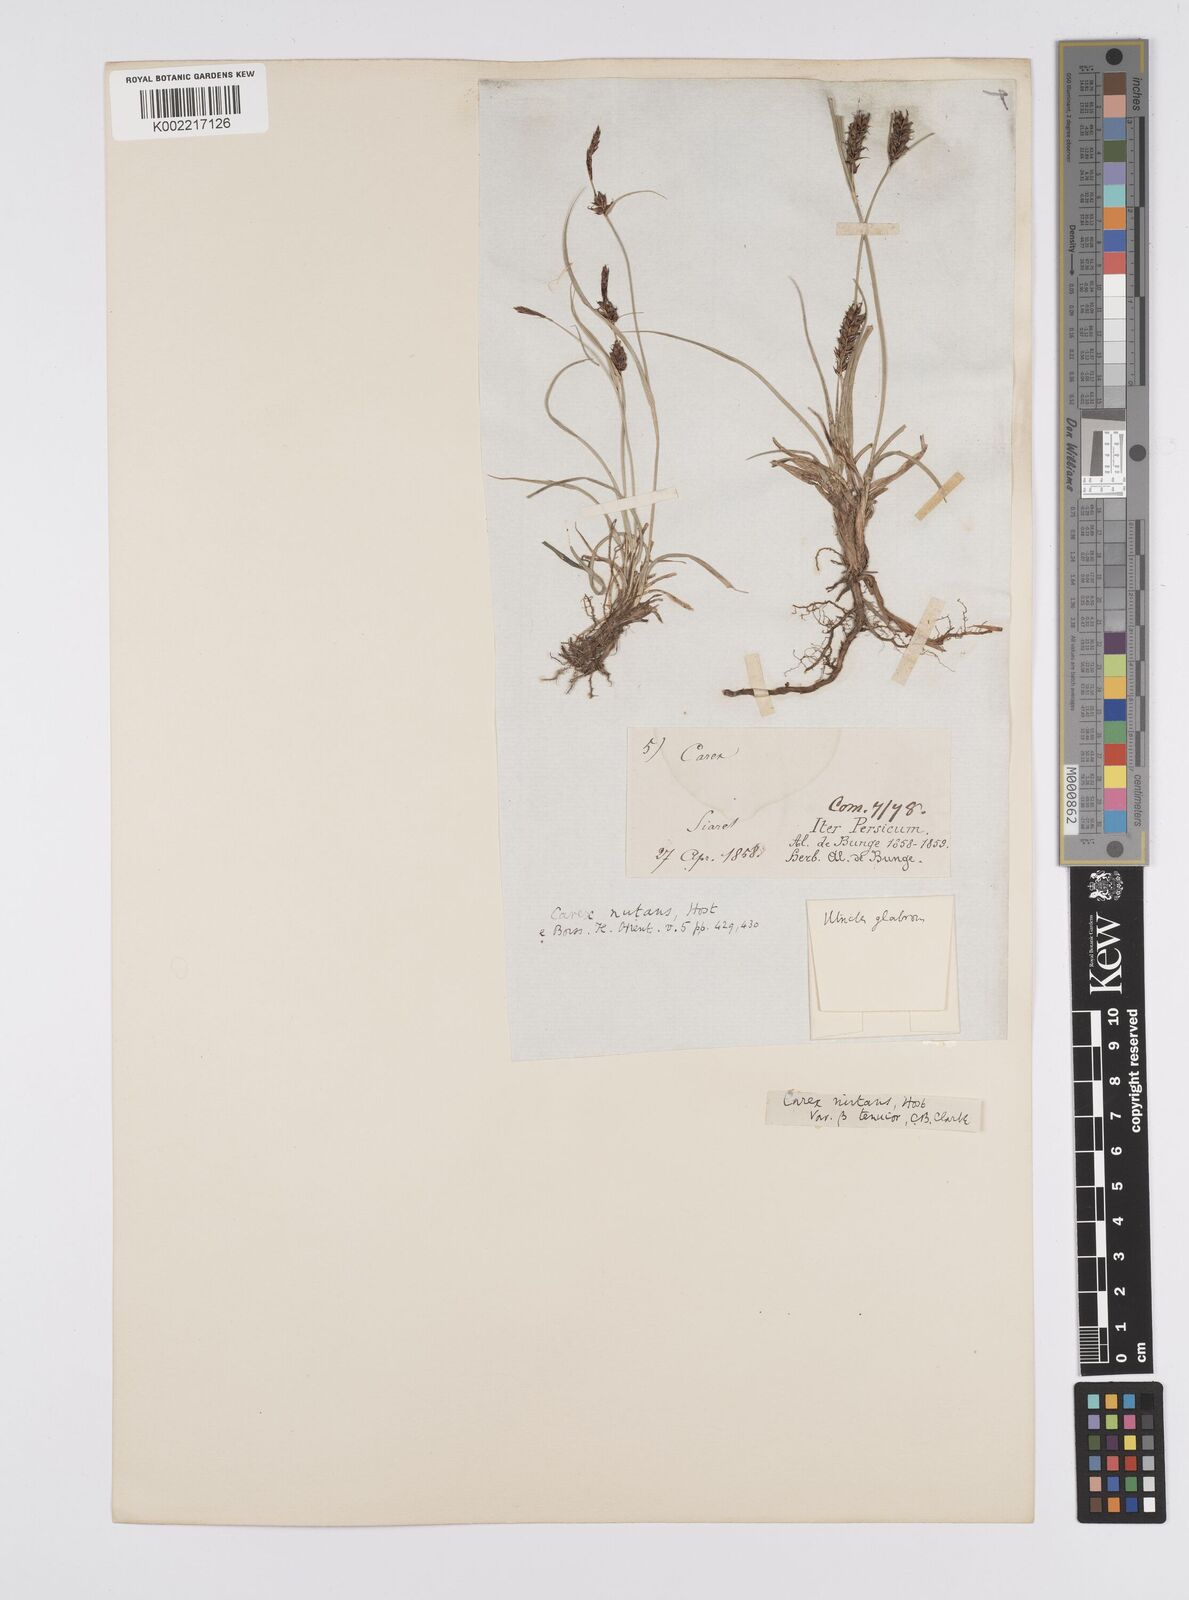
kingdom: Plantae
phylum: Tracheophyta
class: Liliopsida
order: Poales
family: Cyperaceae
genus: Carex
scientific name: Carex melanostachya
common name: Black-spiked sedge
